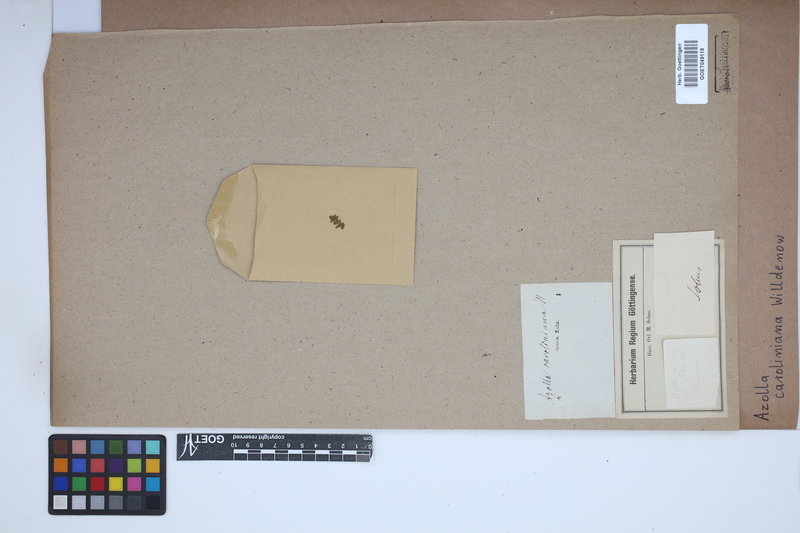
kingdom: Plantae
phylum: Tracheophyta
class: Polypodiopsida
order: Salviniales
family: Salviniaceae
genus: Azolla
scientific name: Azolla caroliniana
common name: Carolina mosquitofern
